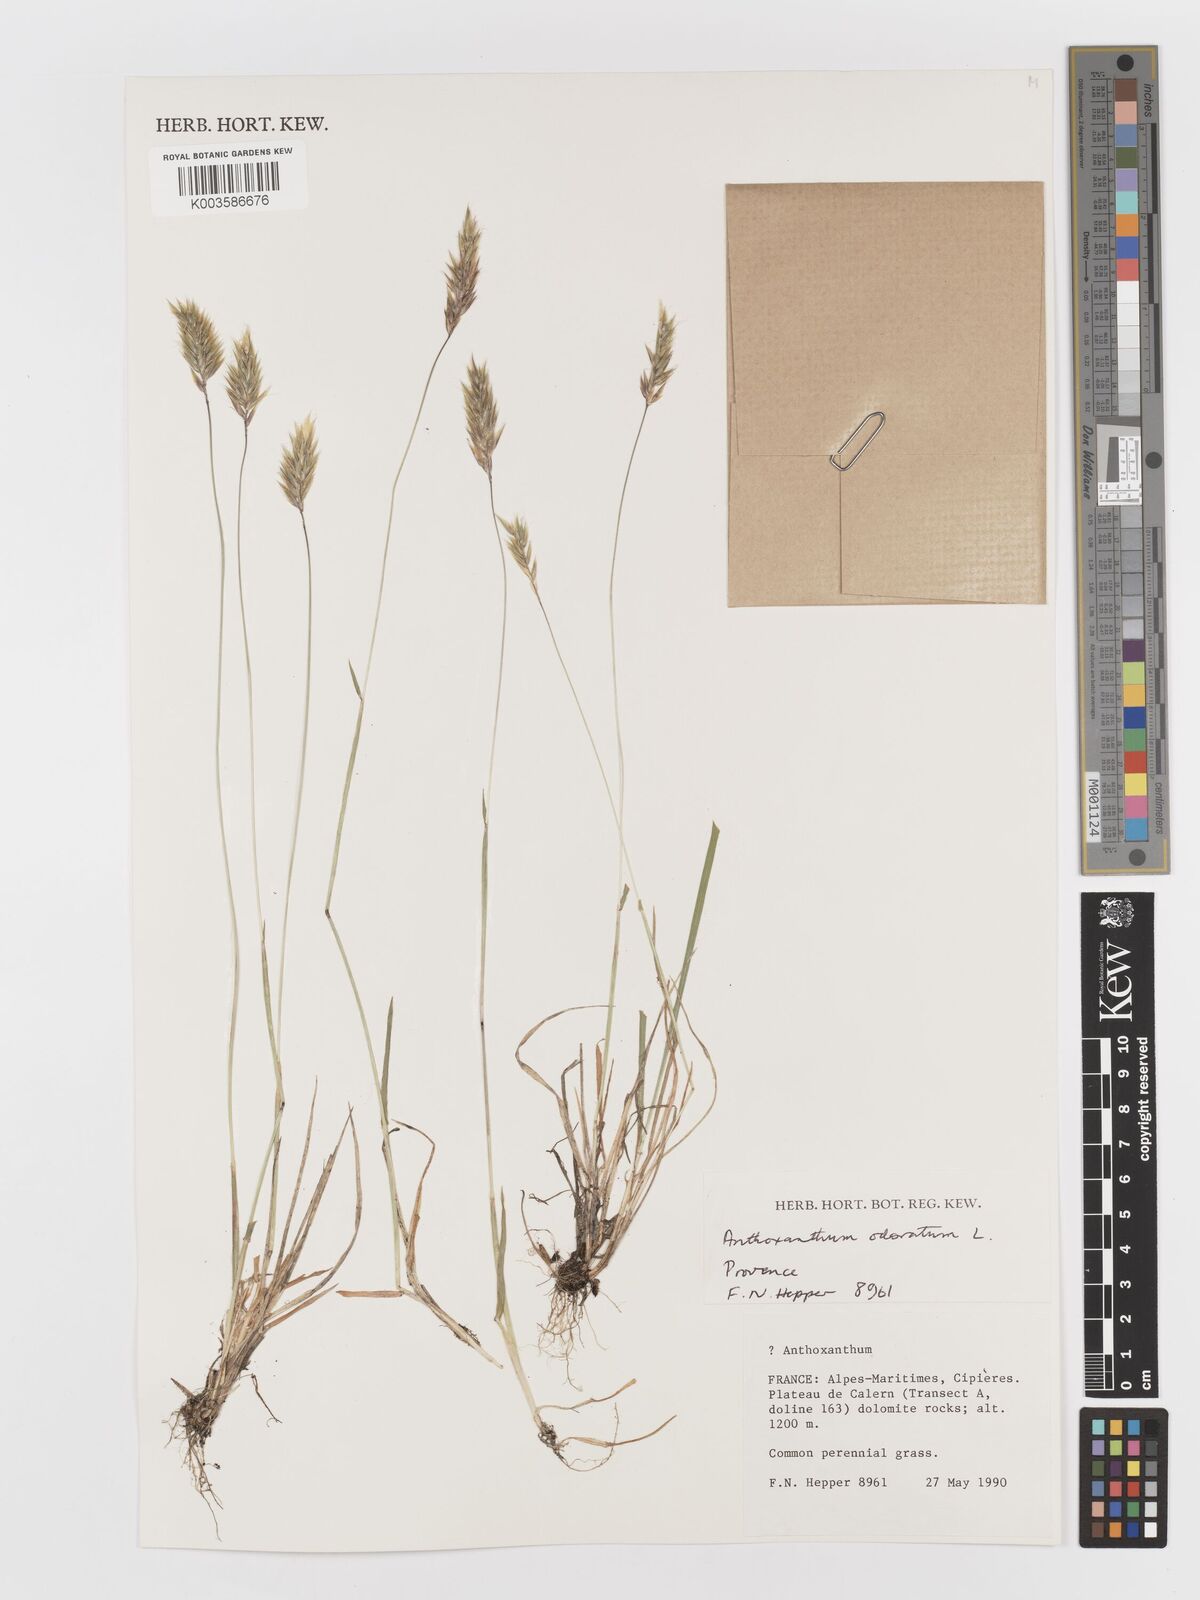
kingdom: Plantae
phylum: Tracheophyta
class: Liliopsida
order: Poales
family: Poaceae
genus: Anthoxanthum
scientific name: Anthoxanthum odoratum
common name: Sweet vernalgrass
